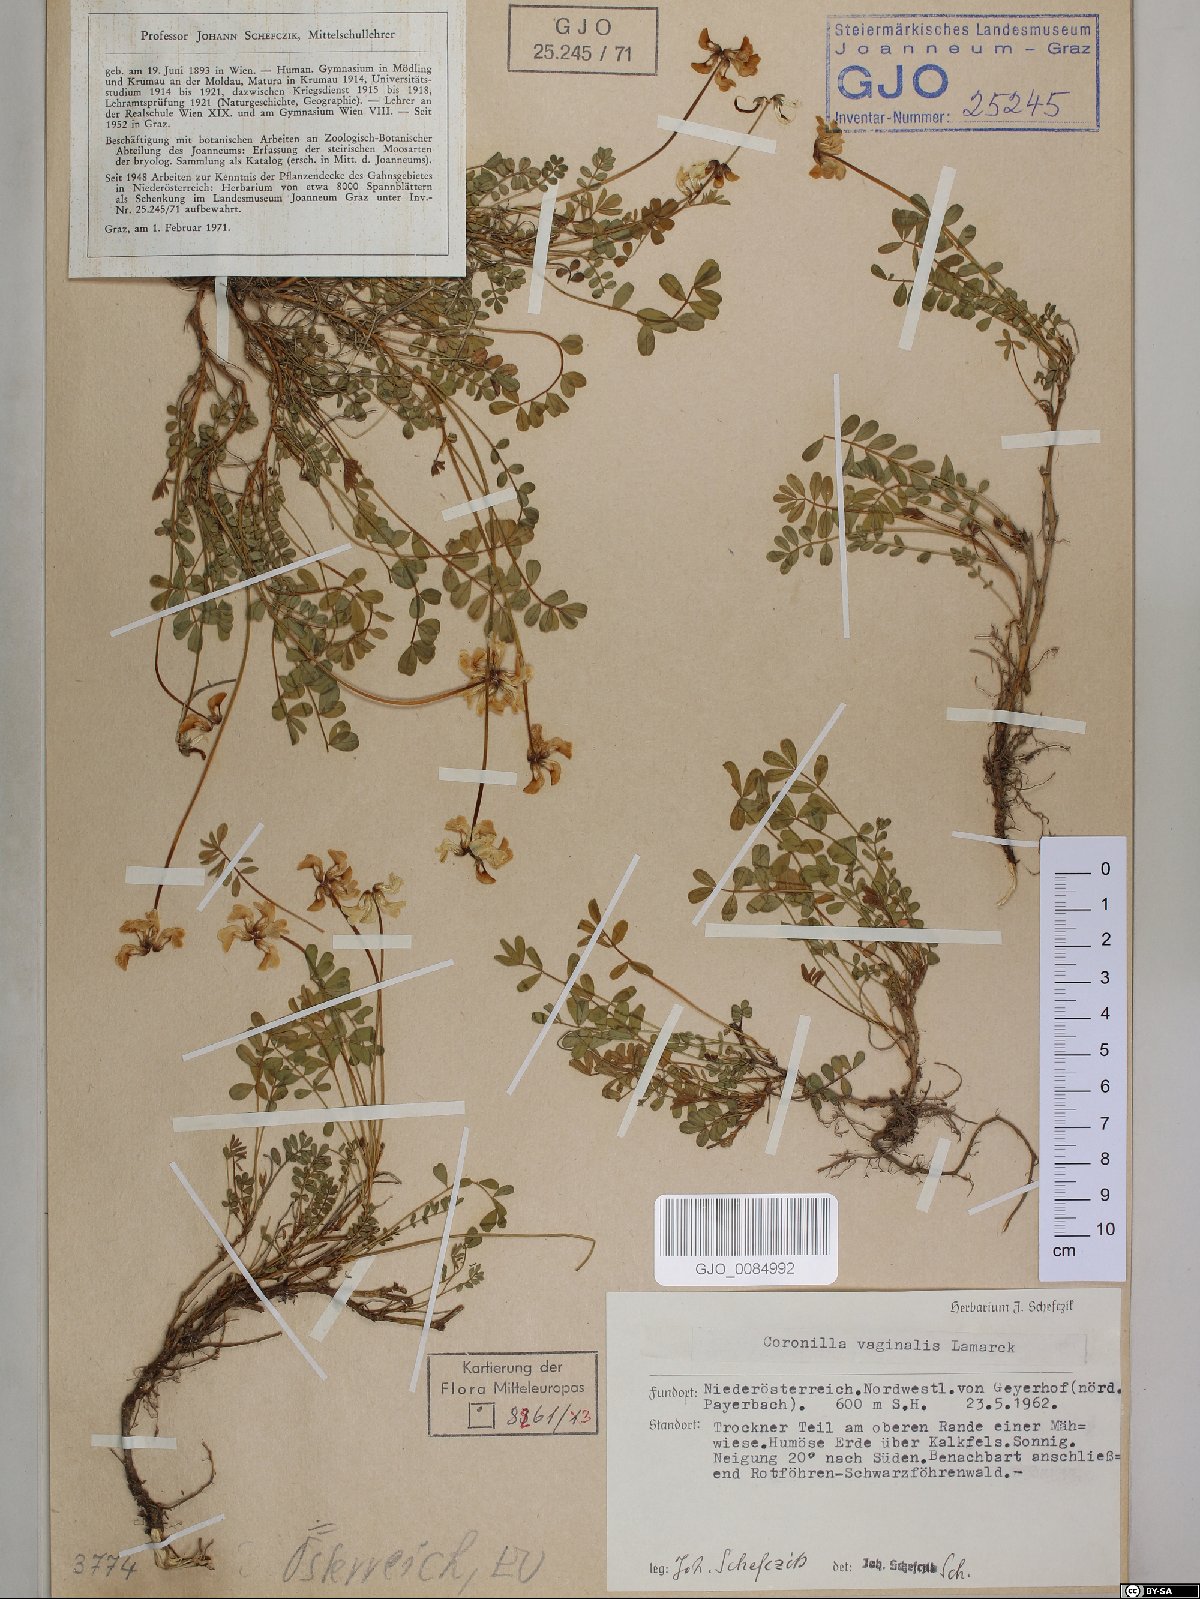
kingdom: Plantae
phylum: Tracheophyta
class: Magnoliopsida
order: Fabales
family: Fabaceae
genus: Coronilla
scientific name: Coronilla vaginalis
